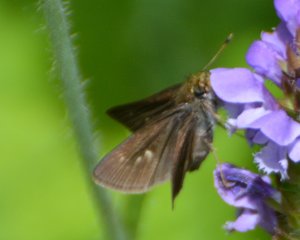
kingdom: Animalia
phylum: Arthropoda
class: Insecta
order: Lepidoptera
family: Hesperiidae
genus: Euphyes
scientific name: Euphyes vestris
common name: Dun Skipper
